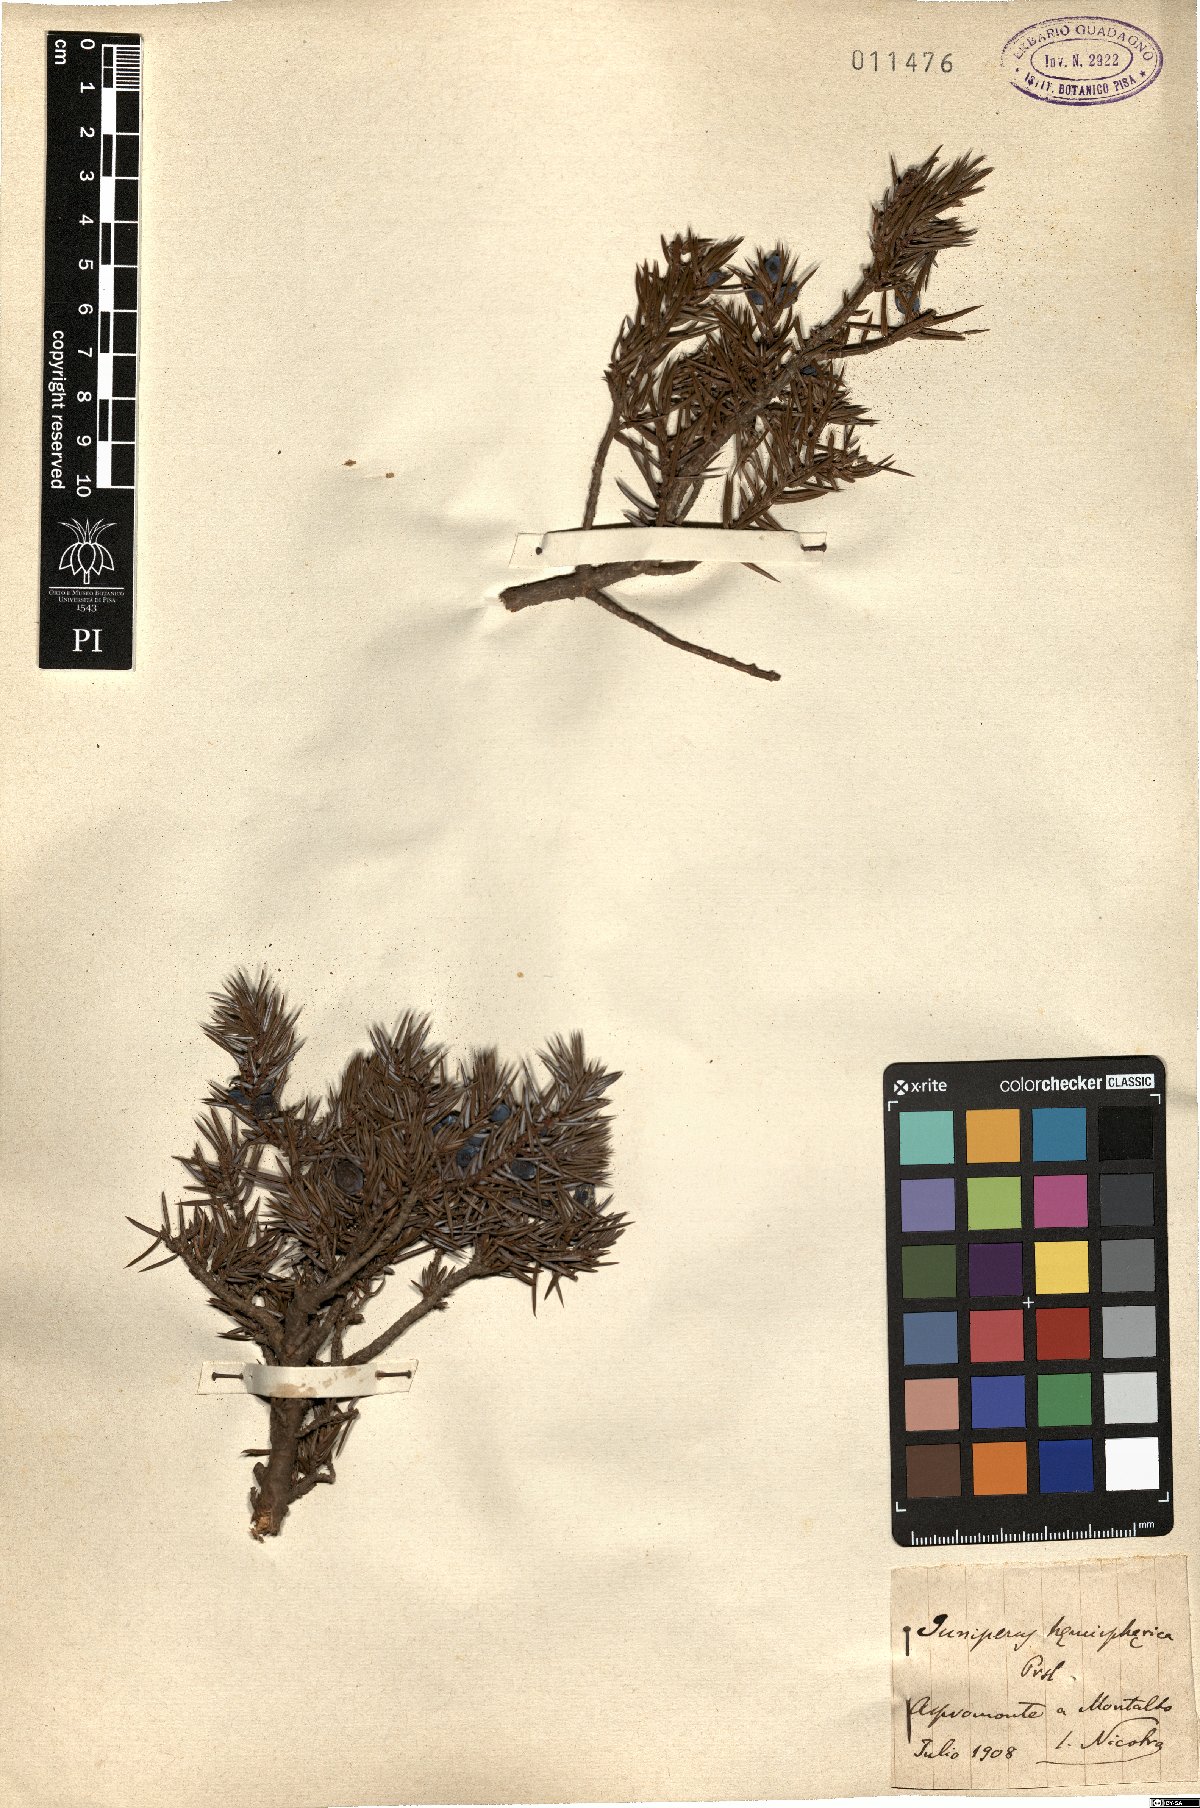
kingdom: Plantae
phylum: Tracheophyta
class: Pinopsida
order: Pinales
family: Cupressaceae
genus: Juniperus
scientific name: Juniperus communis
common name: Common juniper
